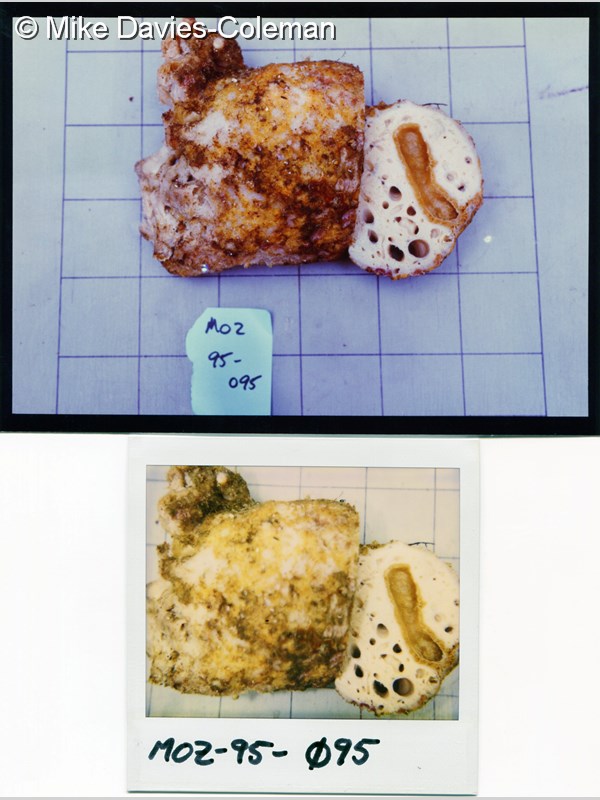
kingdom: Animalia
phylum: Porifera
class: Demospongiae
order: Clionaida
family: Spirastrellidae
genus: Spirastrella
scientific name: Spirastrella
